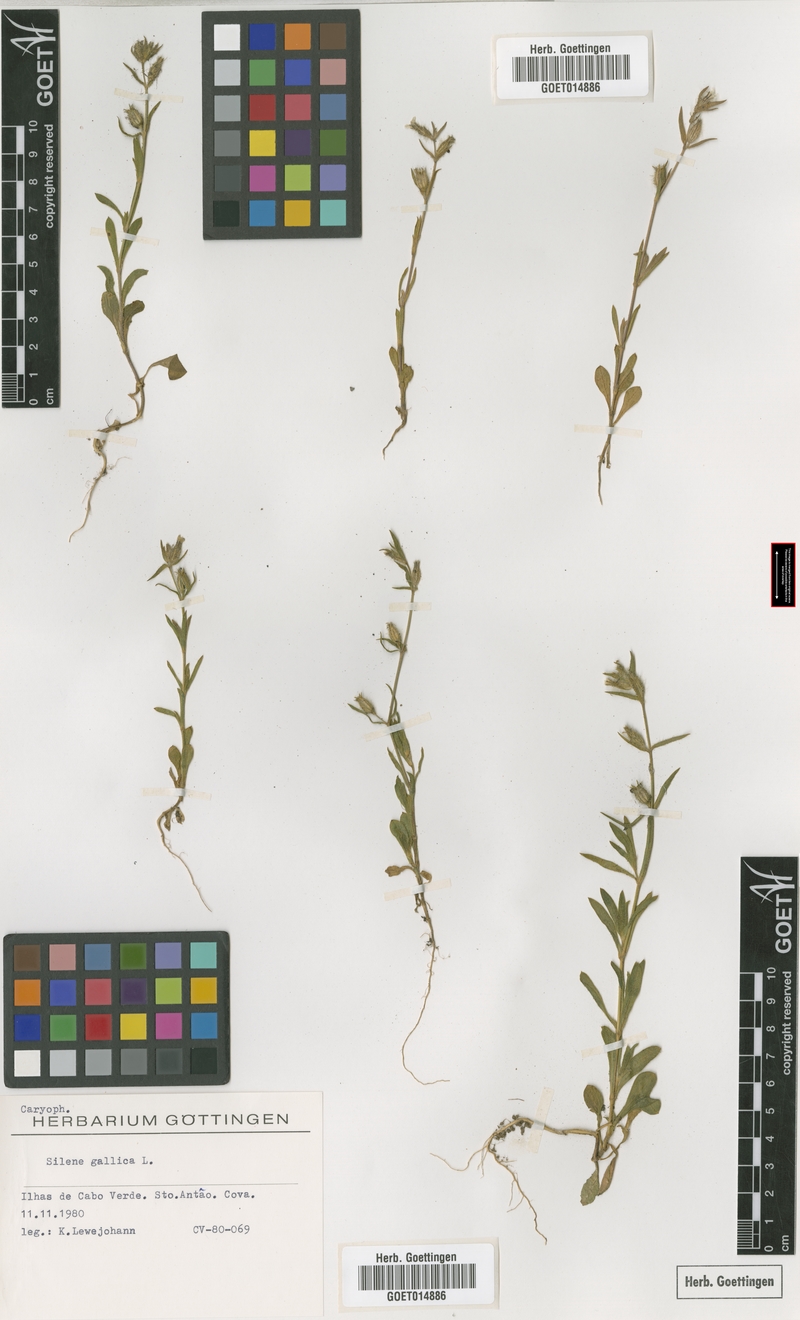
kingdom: Plantae
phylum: Tracheophyta
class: Magnoliopsida
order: Caryophyllales
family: Caryophyllaceae
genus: Silene
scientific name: Silene gallica
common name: Small-flowered catchfly
